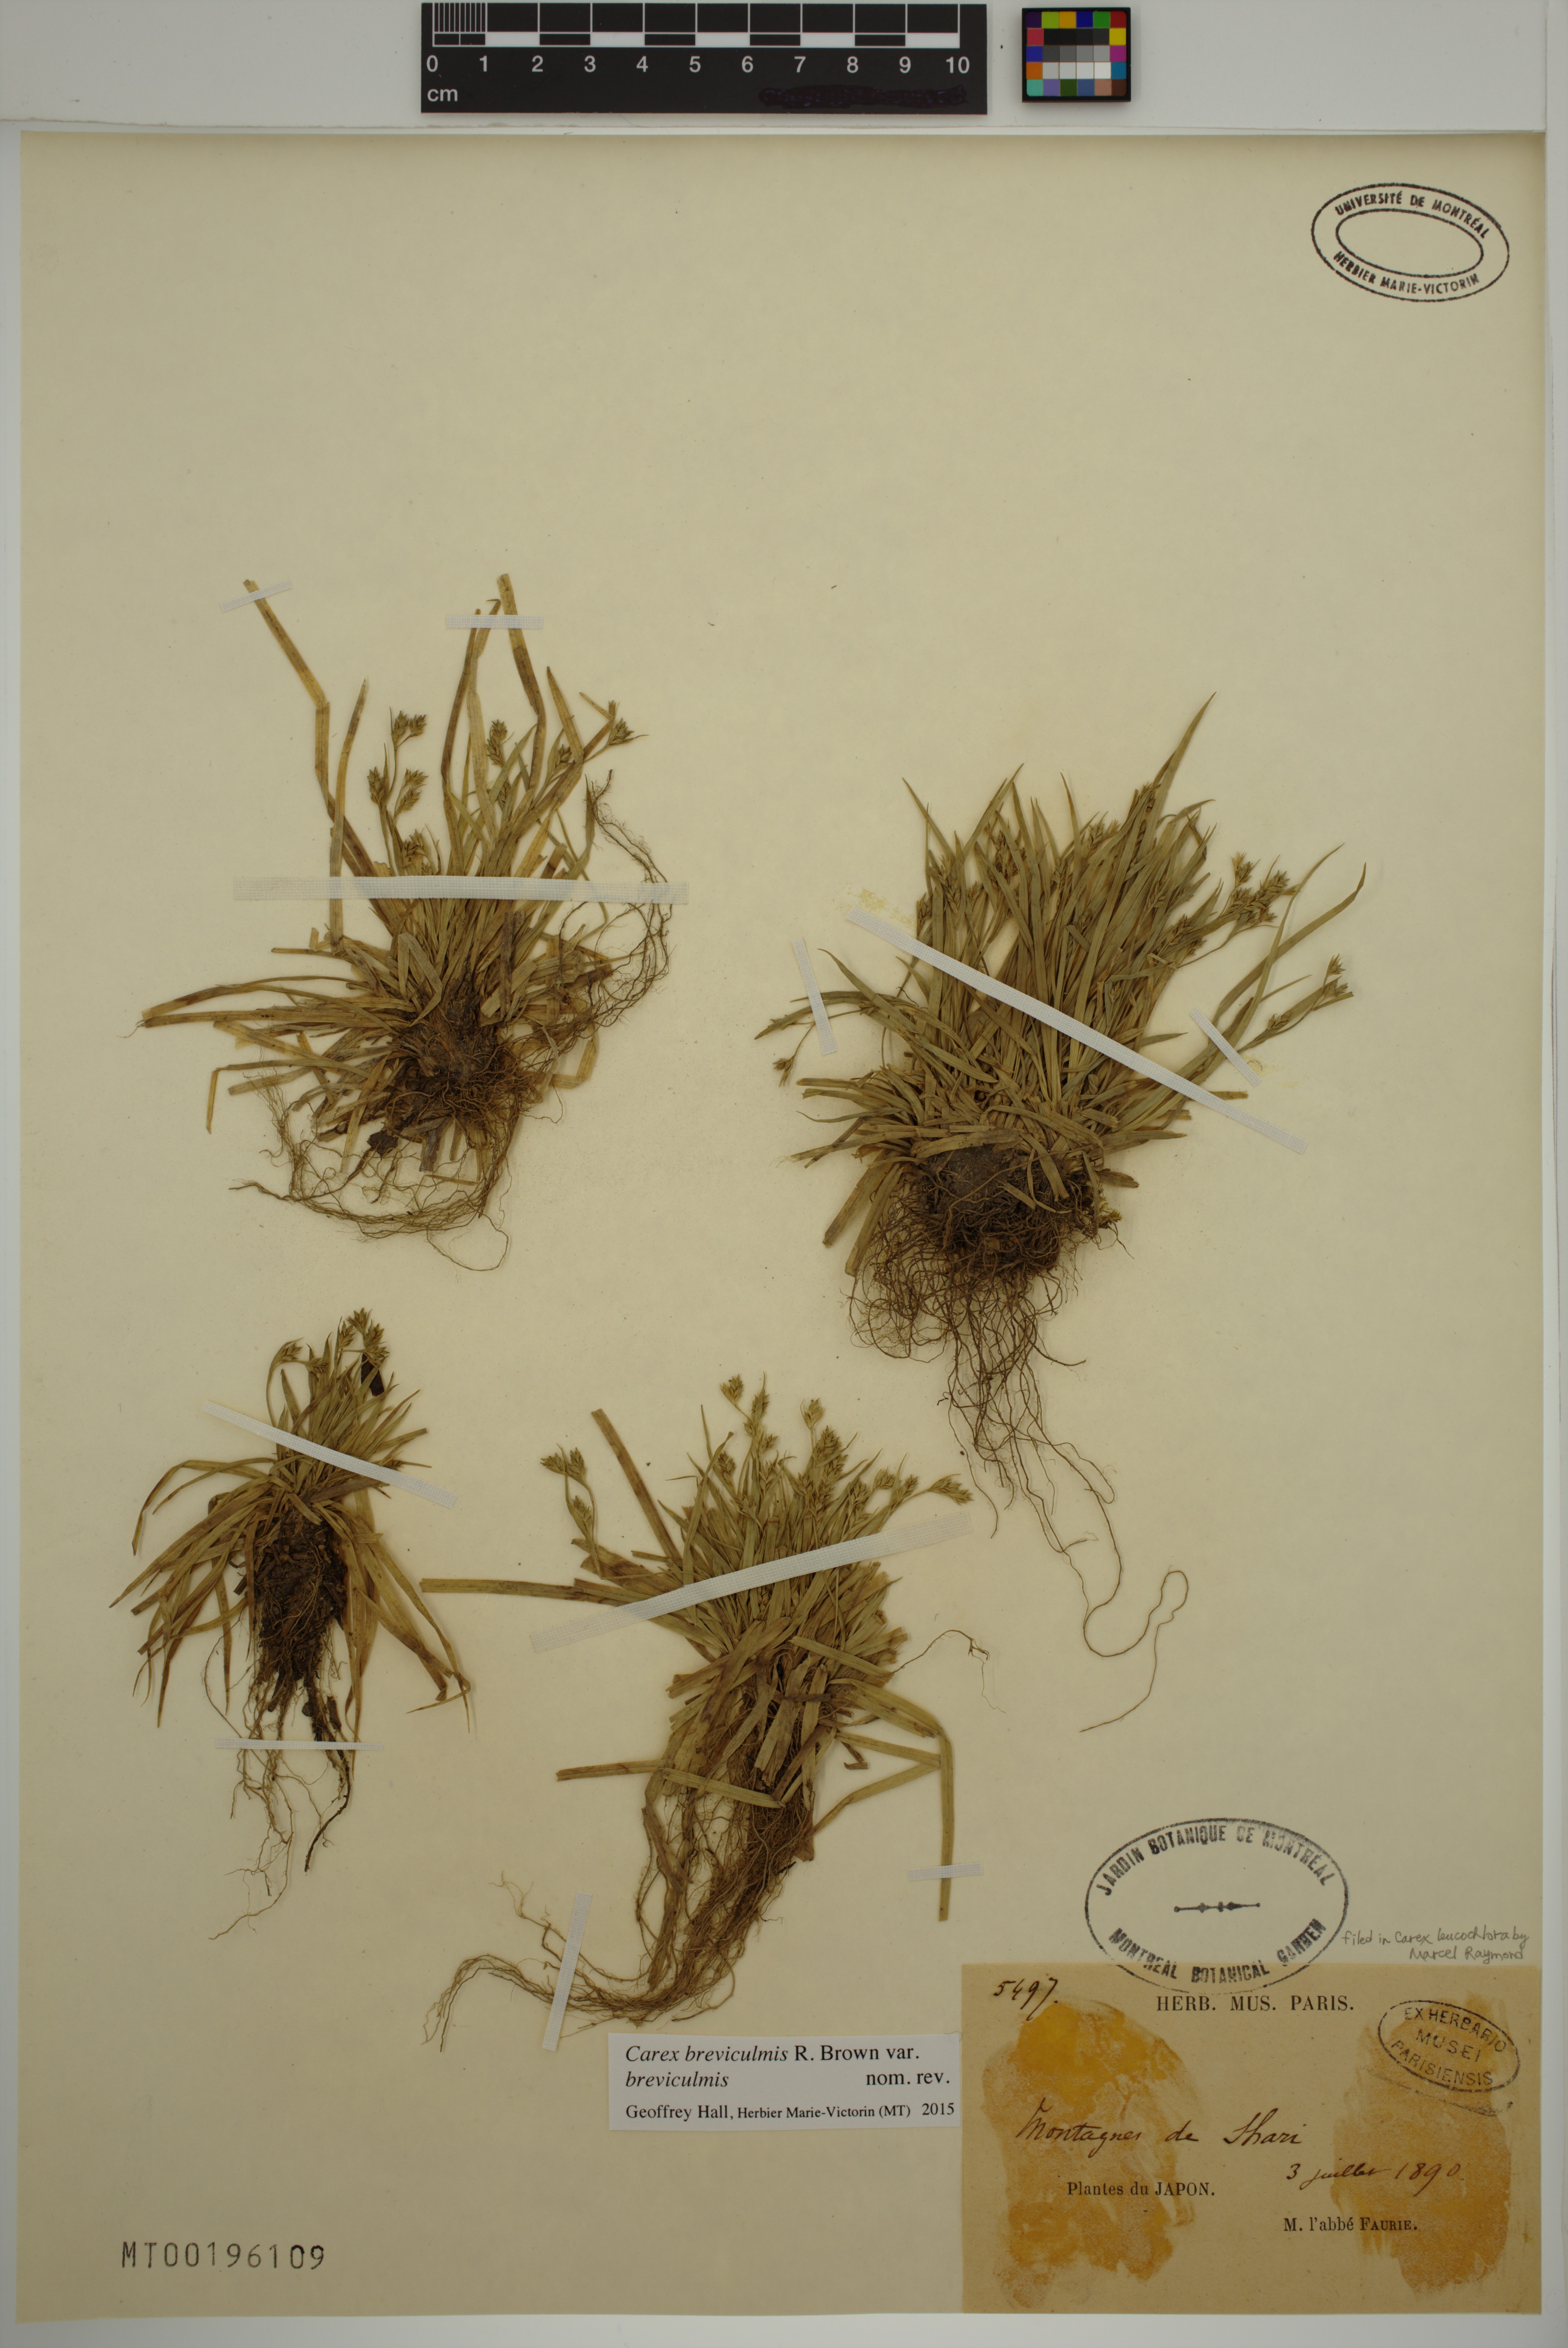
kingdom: Plantae
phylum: Tracheophyta
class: Liliopsida
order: Poales
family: Cyperaceae
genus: Carex
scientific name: Carex breviculmis
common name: Asian shortstem sedge
